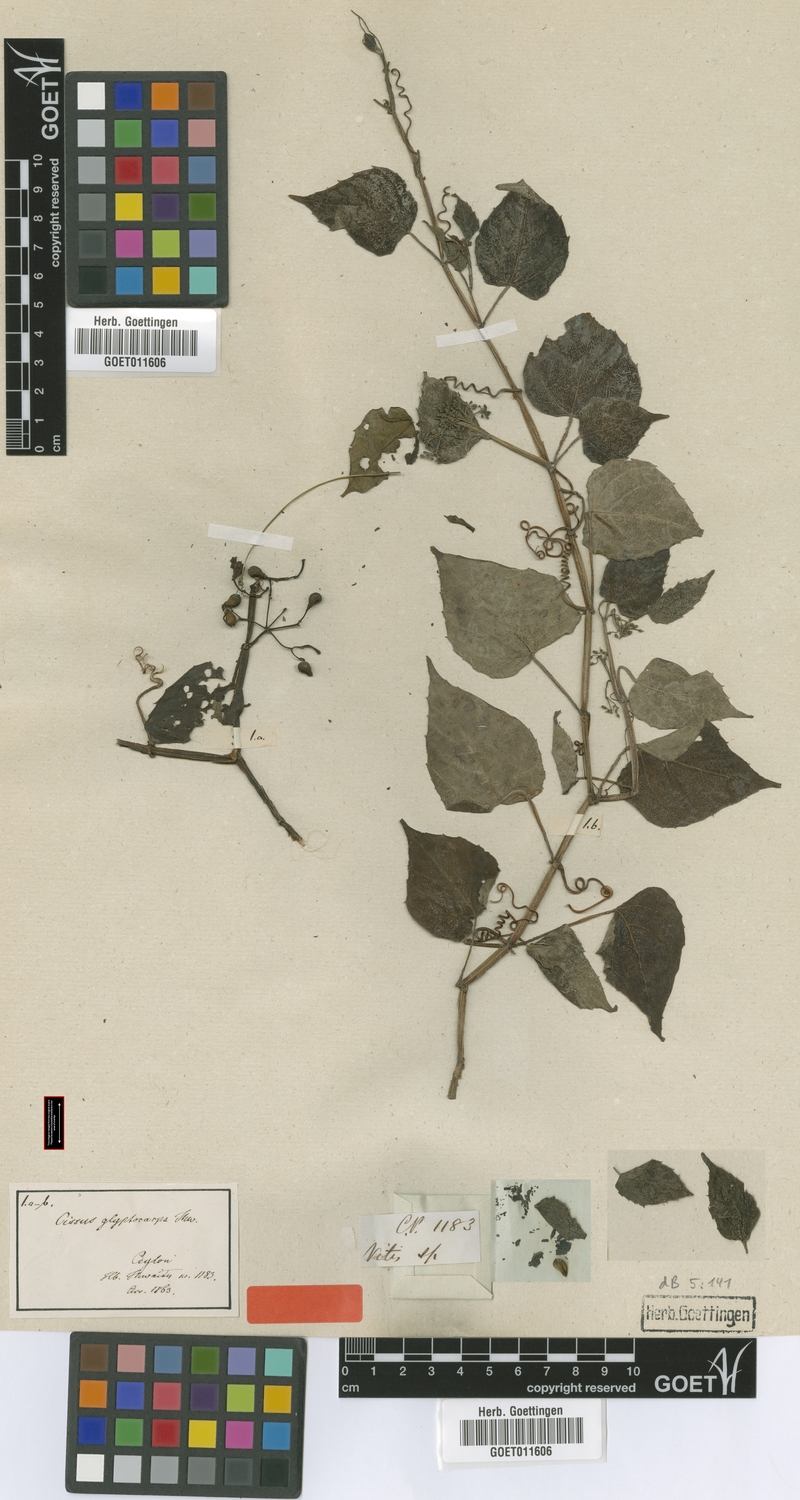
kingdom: Plantae
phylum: Tracheophyta
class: Magnoliopsida
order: Vitales
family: Vitaceae
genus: Cissus
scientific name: Cissus glyptocarpa
